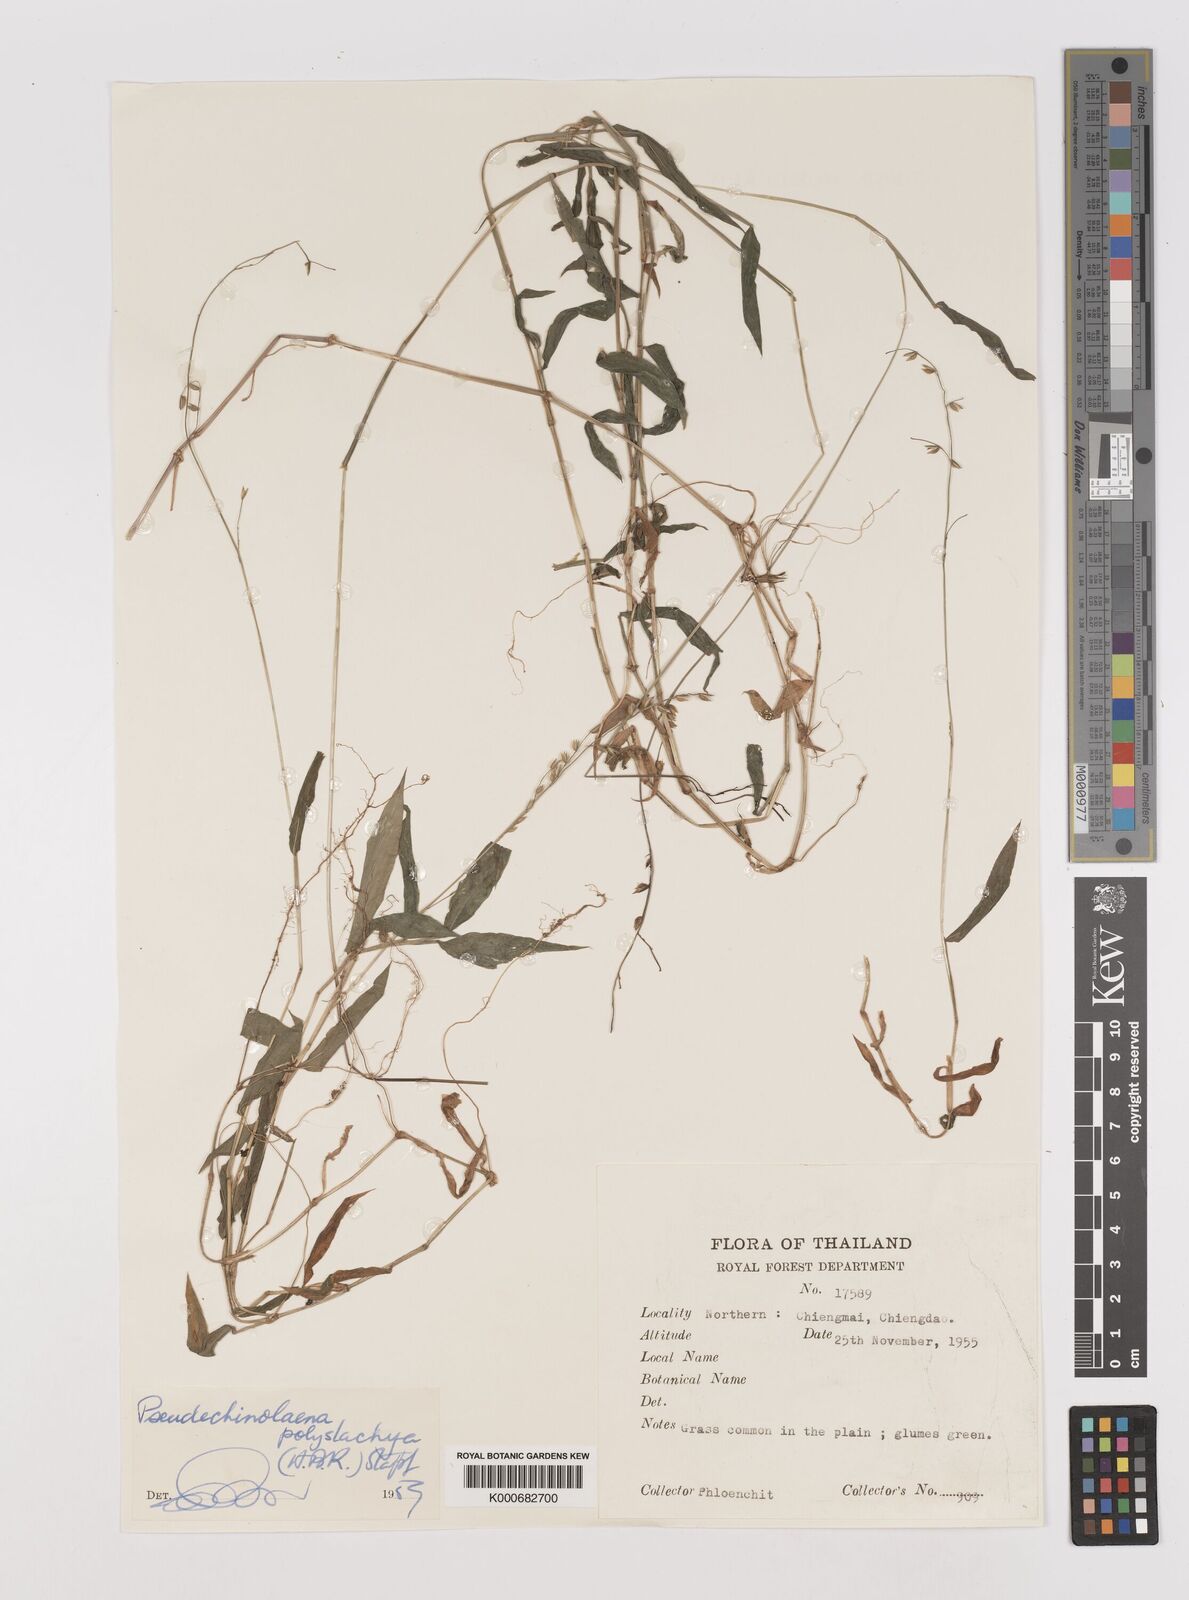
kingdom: Plantae
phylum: Tracheophyta
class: Liliopsida
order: Poales
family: Poaceae
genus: Pseudechinolaena
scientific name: Pseudechinolaena polystachya
